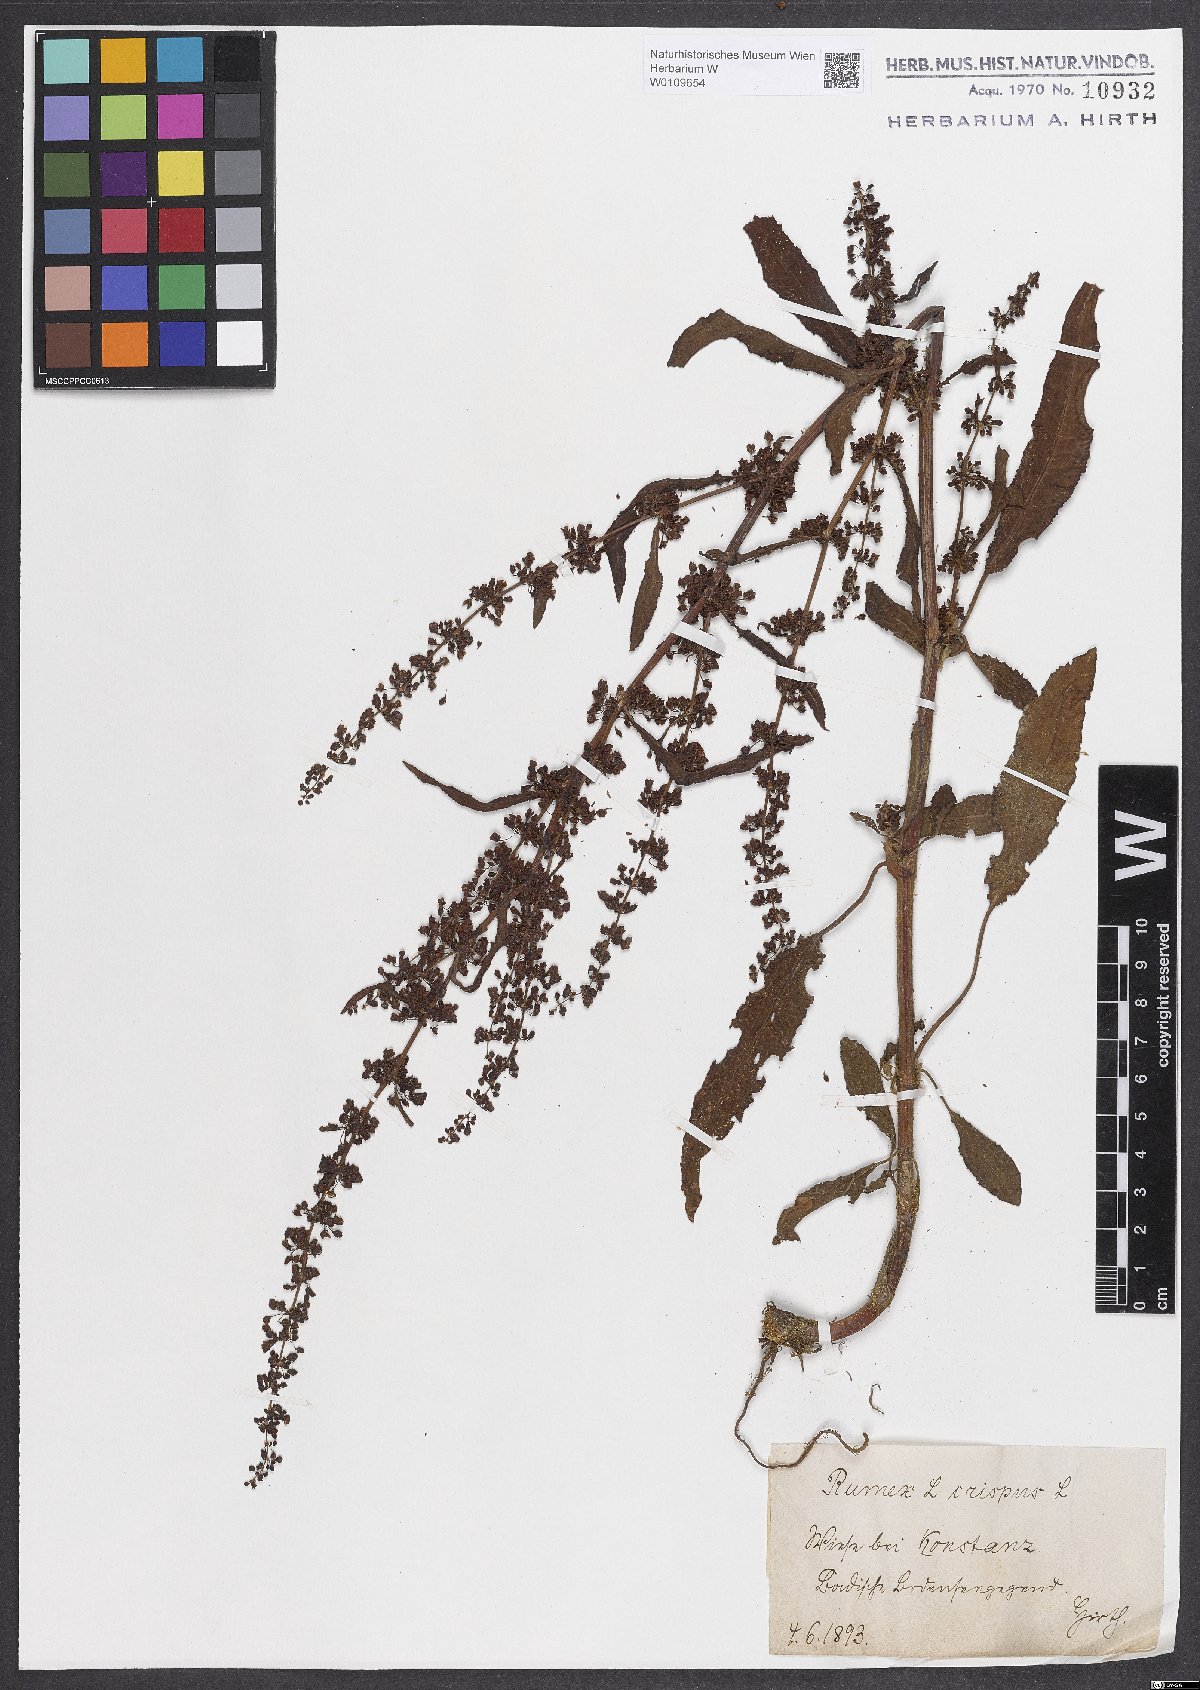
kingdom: Plantae
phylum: Tracheophyta
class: Magnoliopsida
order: Caryophyllales
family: Polygonaceae
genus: Rumex
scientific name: Rumex crispus
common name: Curled dock
